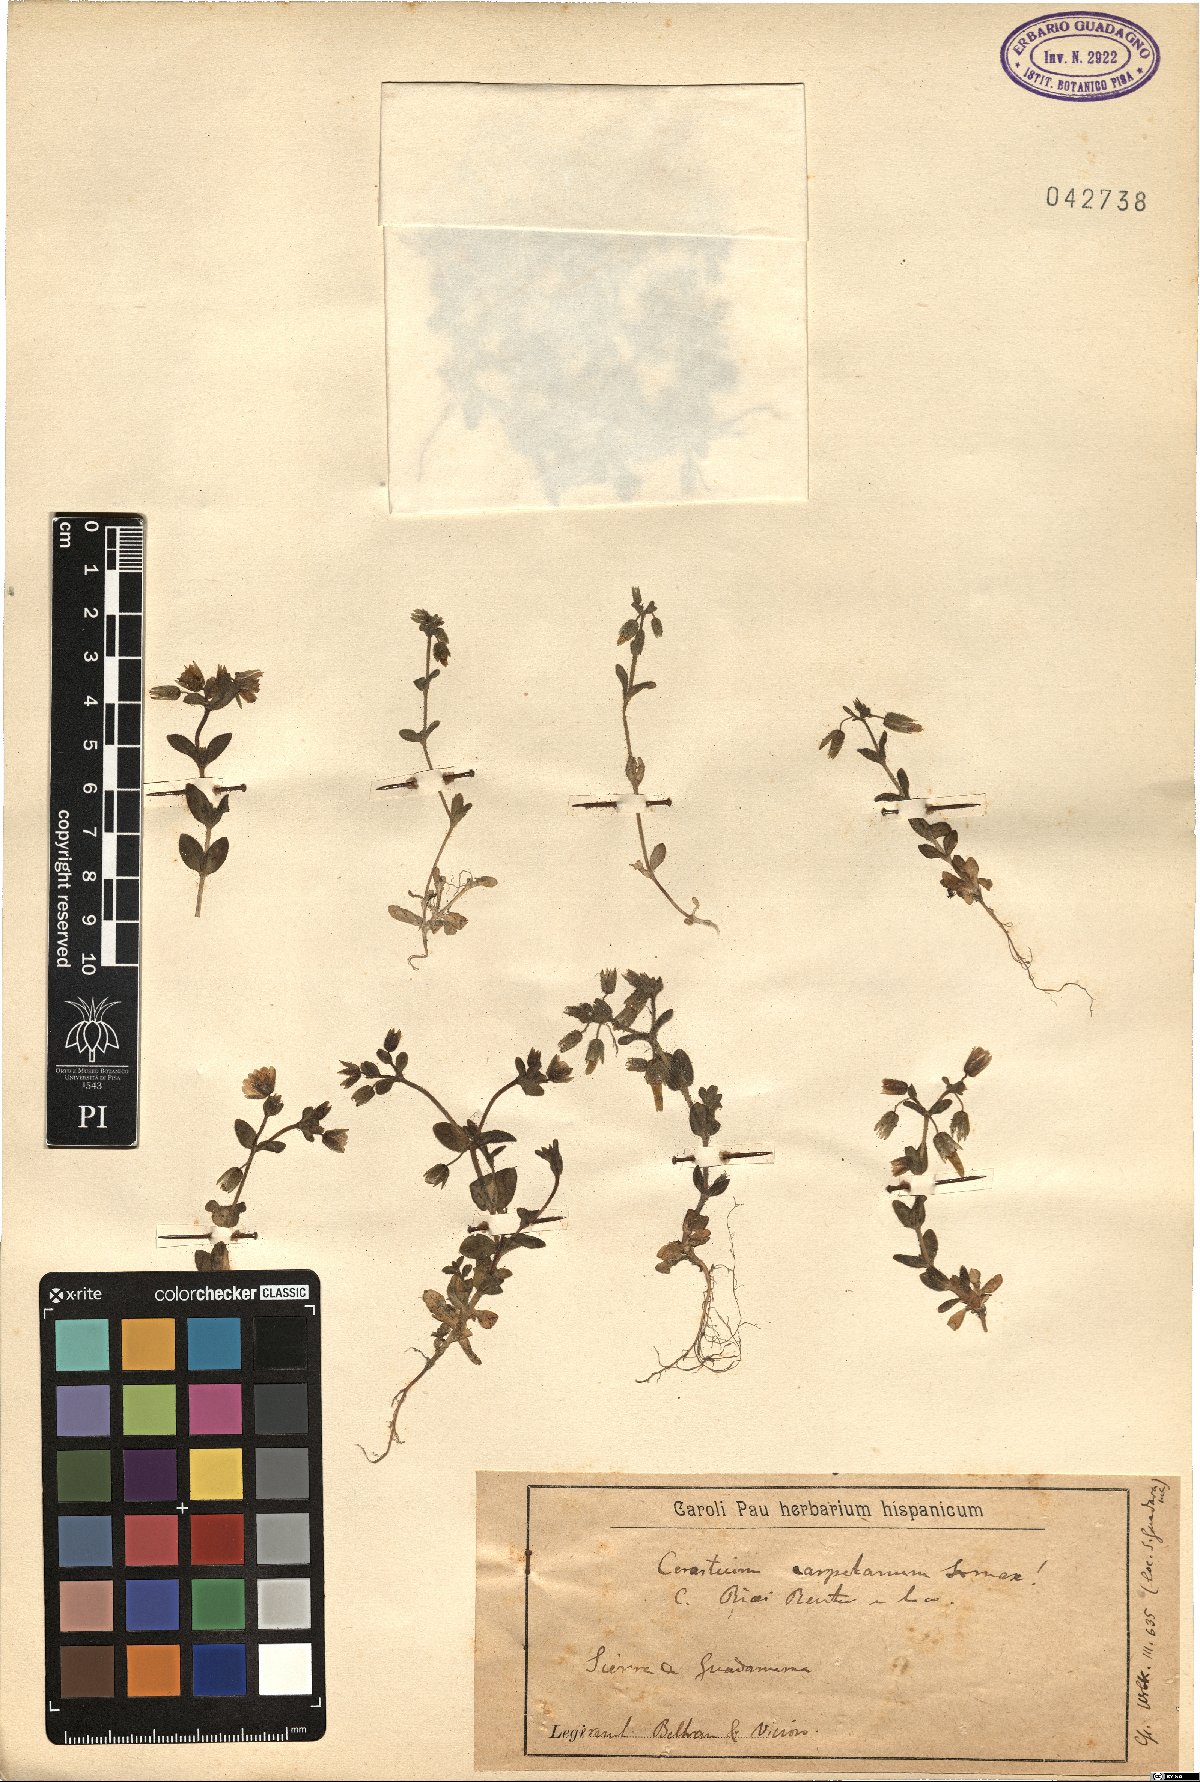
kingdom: Plantae
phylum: Tracheophyta
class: Magnoliopsida
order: Caryophyllales
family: Caryophyllaceae
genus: Cerastium
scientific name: Cerastium ramosissimum
